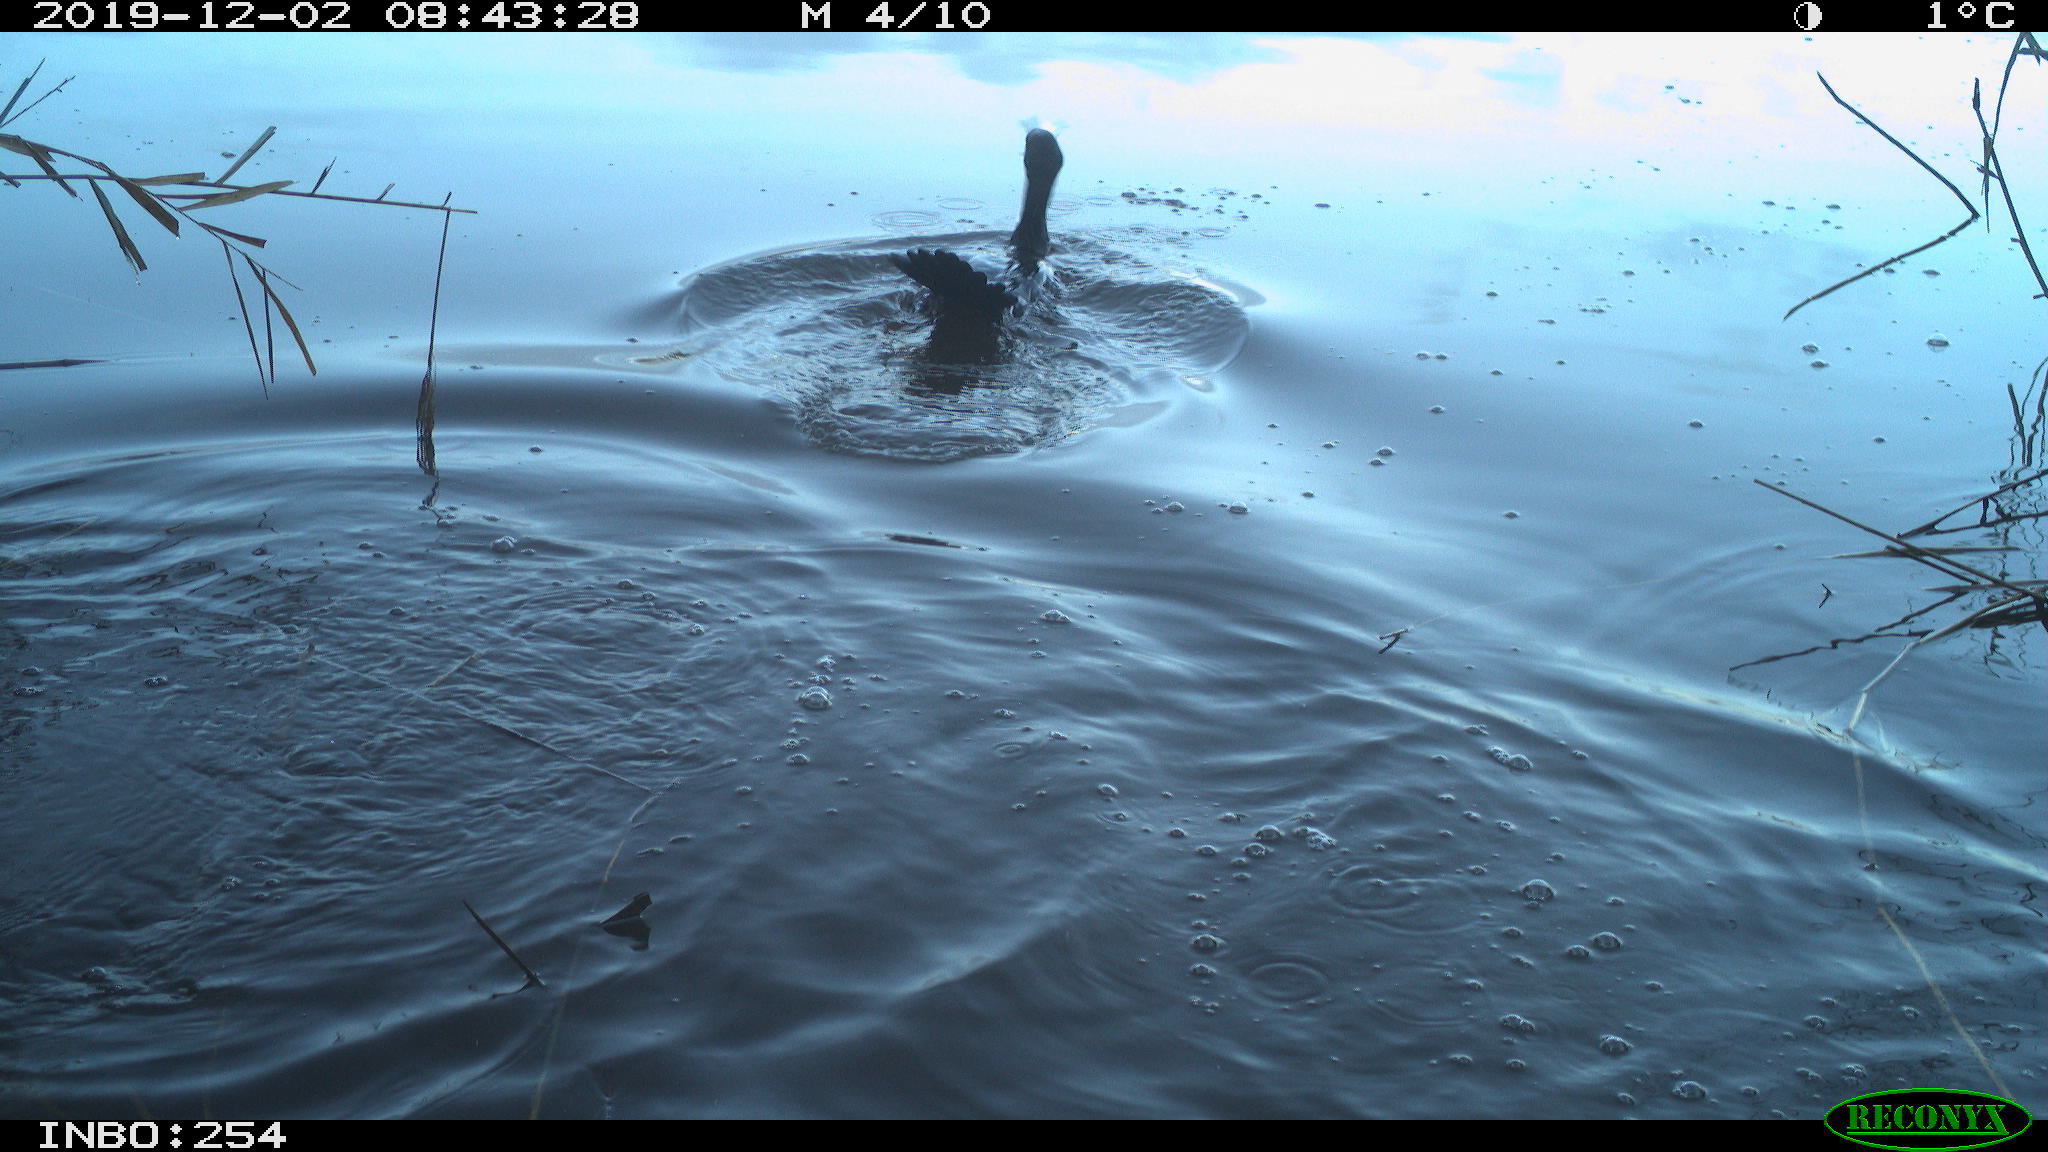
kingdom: Animalia
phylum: Chordata
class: Aves
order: Suliformes
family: Phalacrocoracidae
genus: Phalacrocorax
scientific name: Phalacrocorax carbo
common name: Great cormorant
